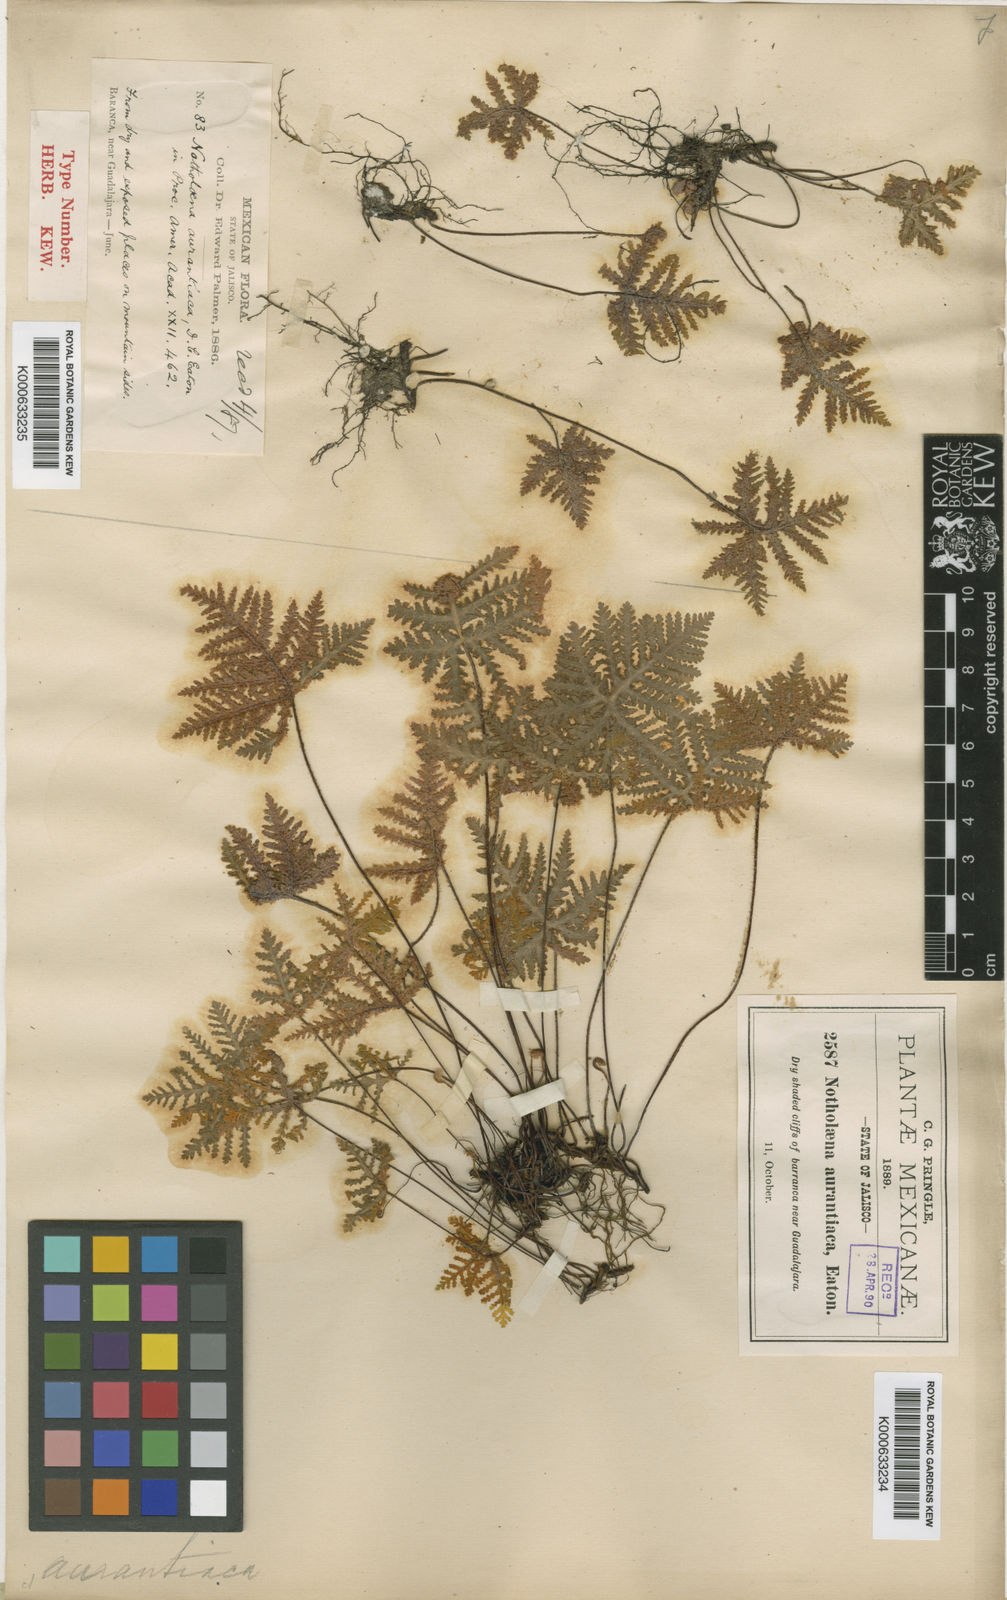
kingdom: Plantae
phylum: Tracheophyta
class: Polypodiopsida
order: Polypodiales
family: Pteridaceae
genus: Notholaena
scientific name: Notholaena ochracea
